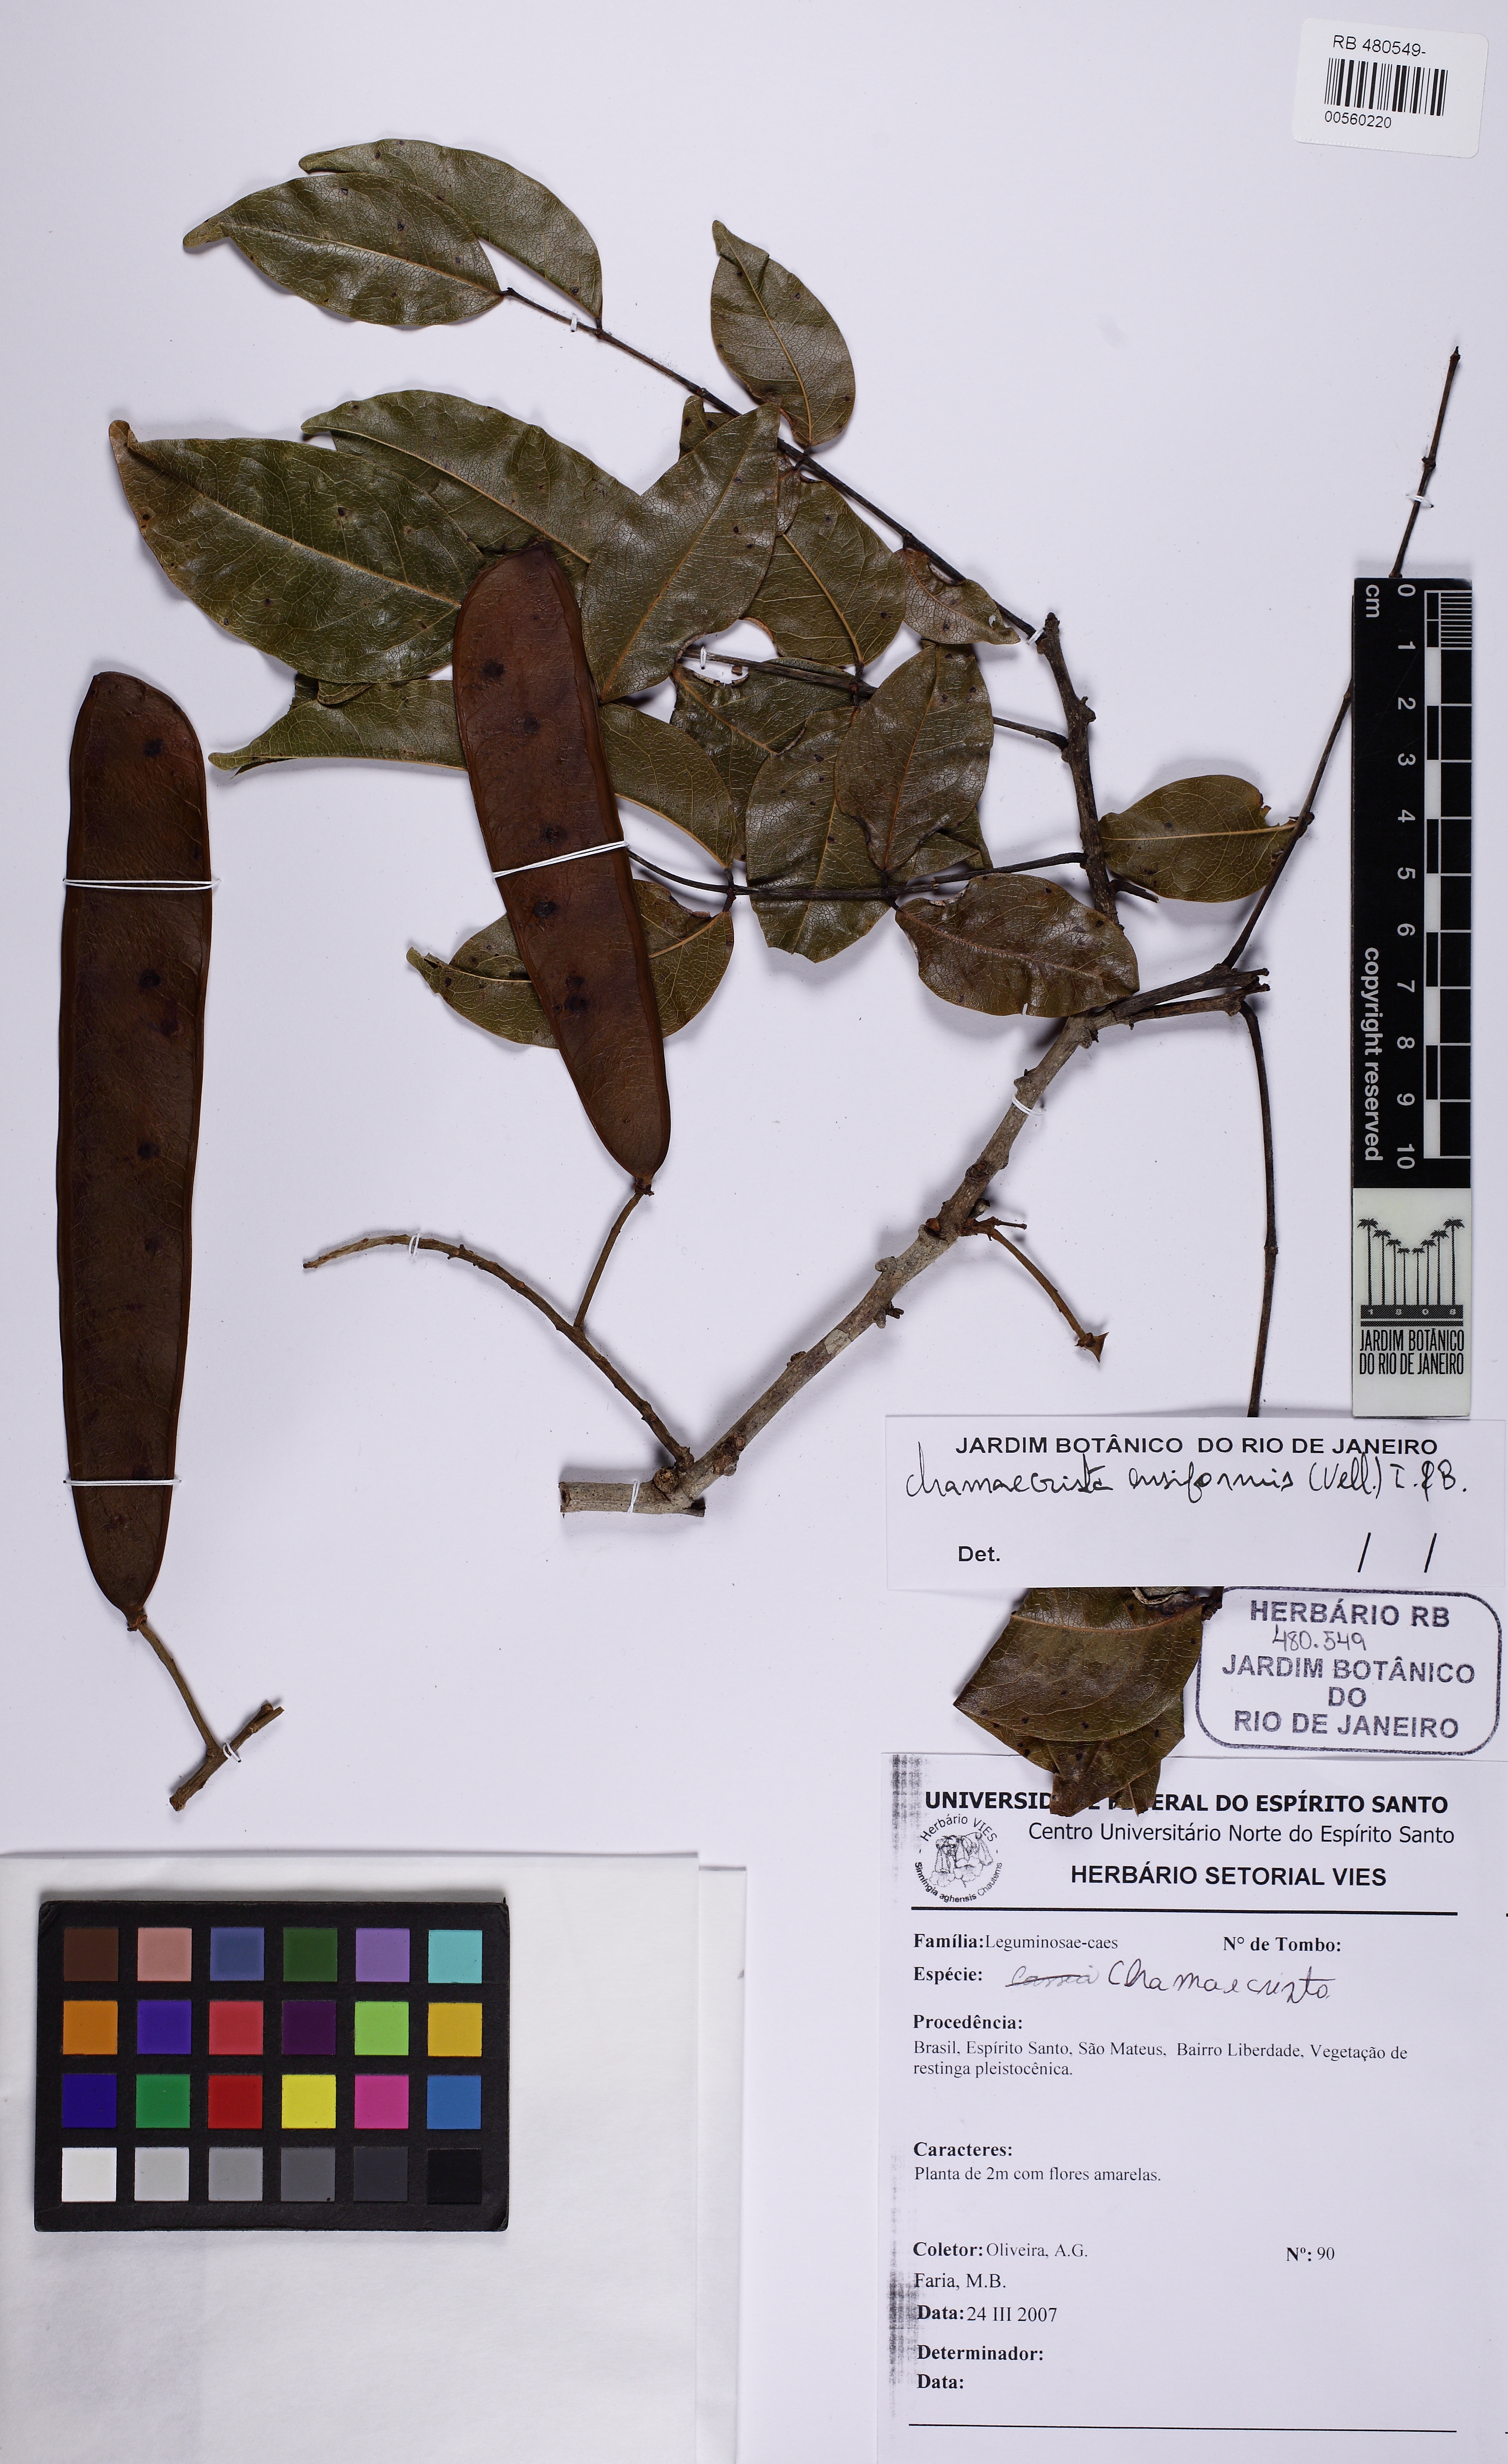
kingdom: Plantae
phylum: Tracheophyta
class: Magnoliopsida
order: Fabales
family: Fabaceae
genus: Chamaecrista
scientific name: Chamaecrista ensiformis
